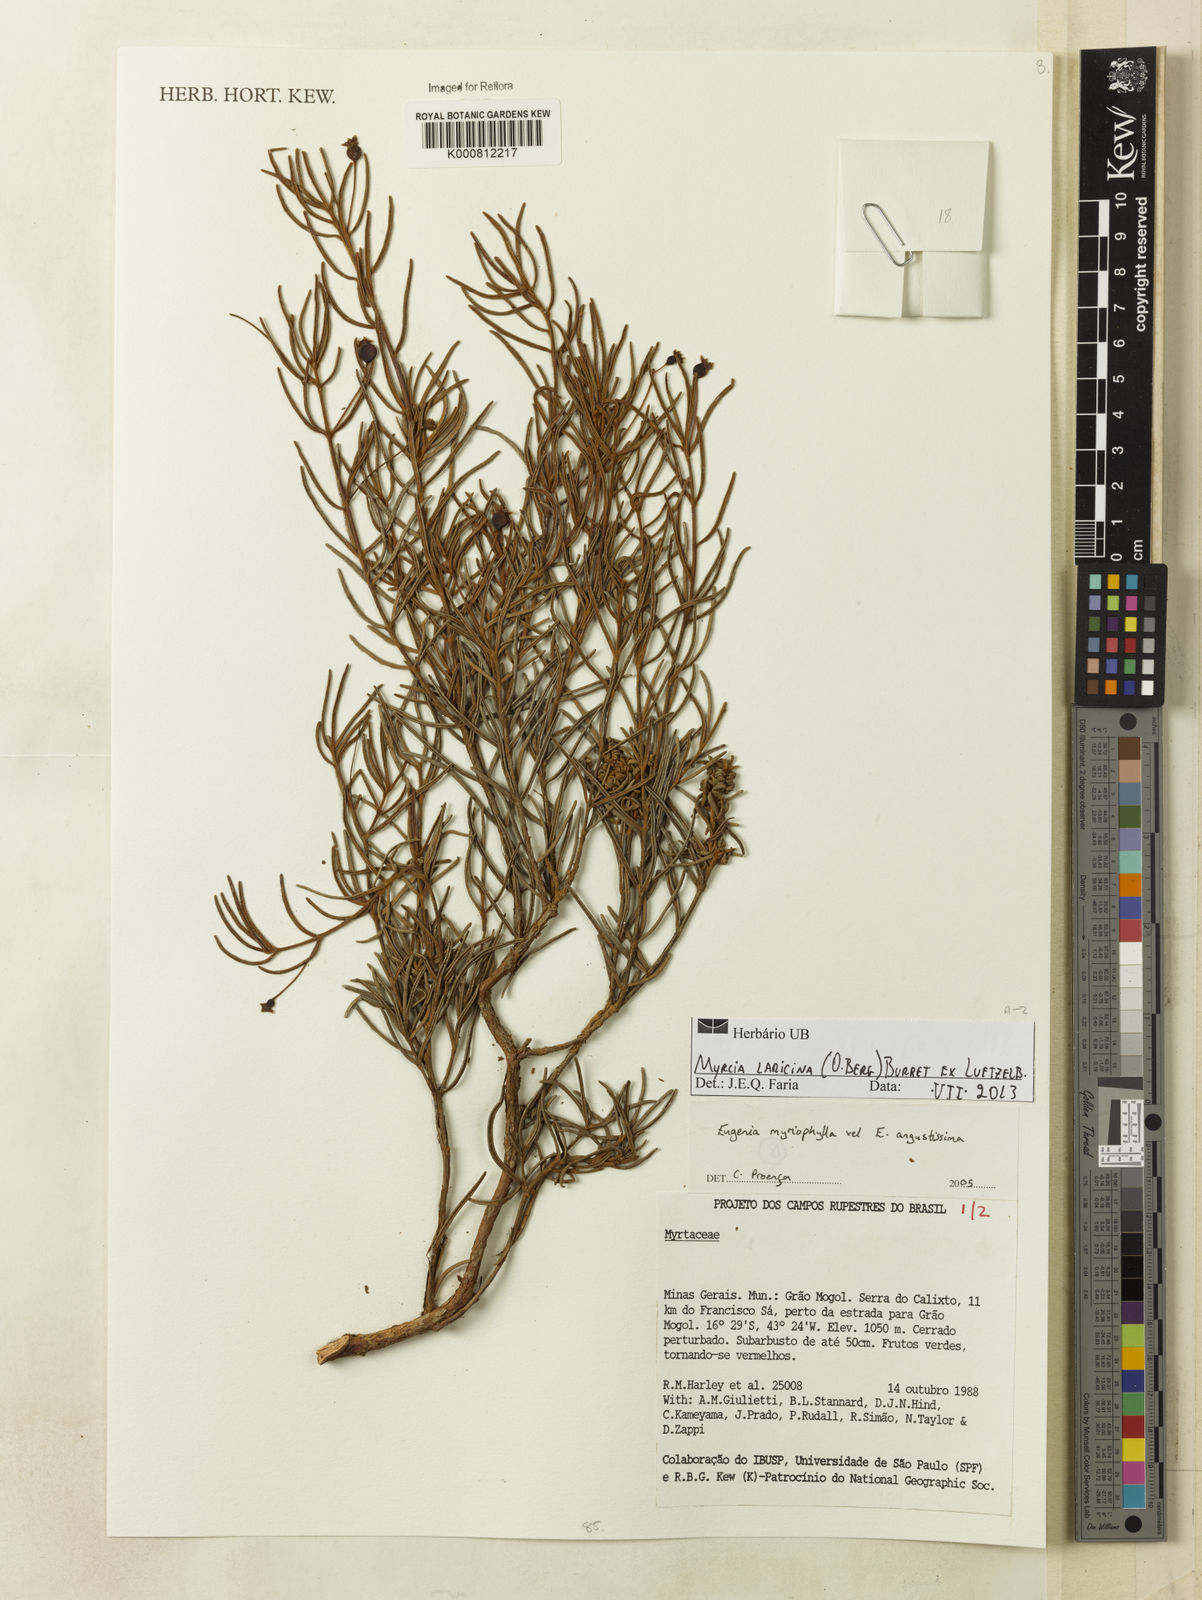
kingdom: Plantae
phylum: Tracheophyta
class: Magnoliopsida
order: Myrtales
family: Myrtaceae
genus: Myrcia
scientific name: Myrcia laricina
